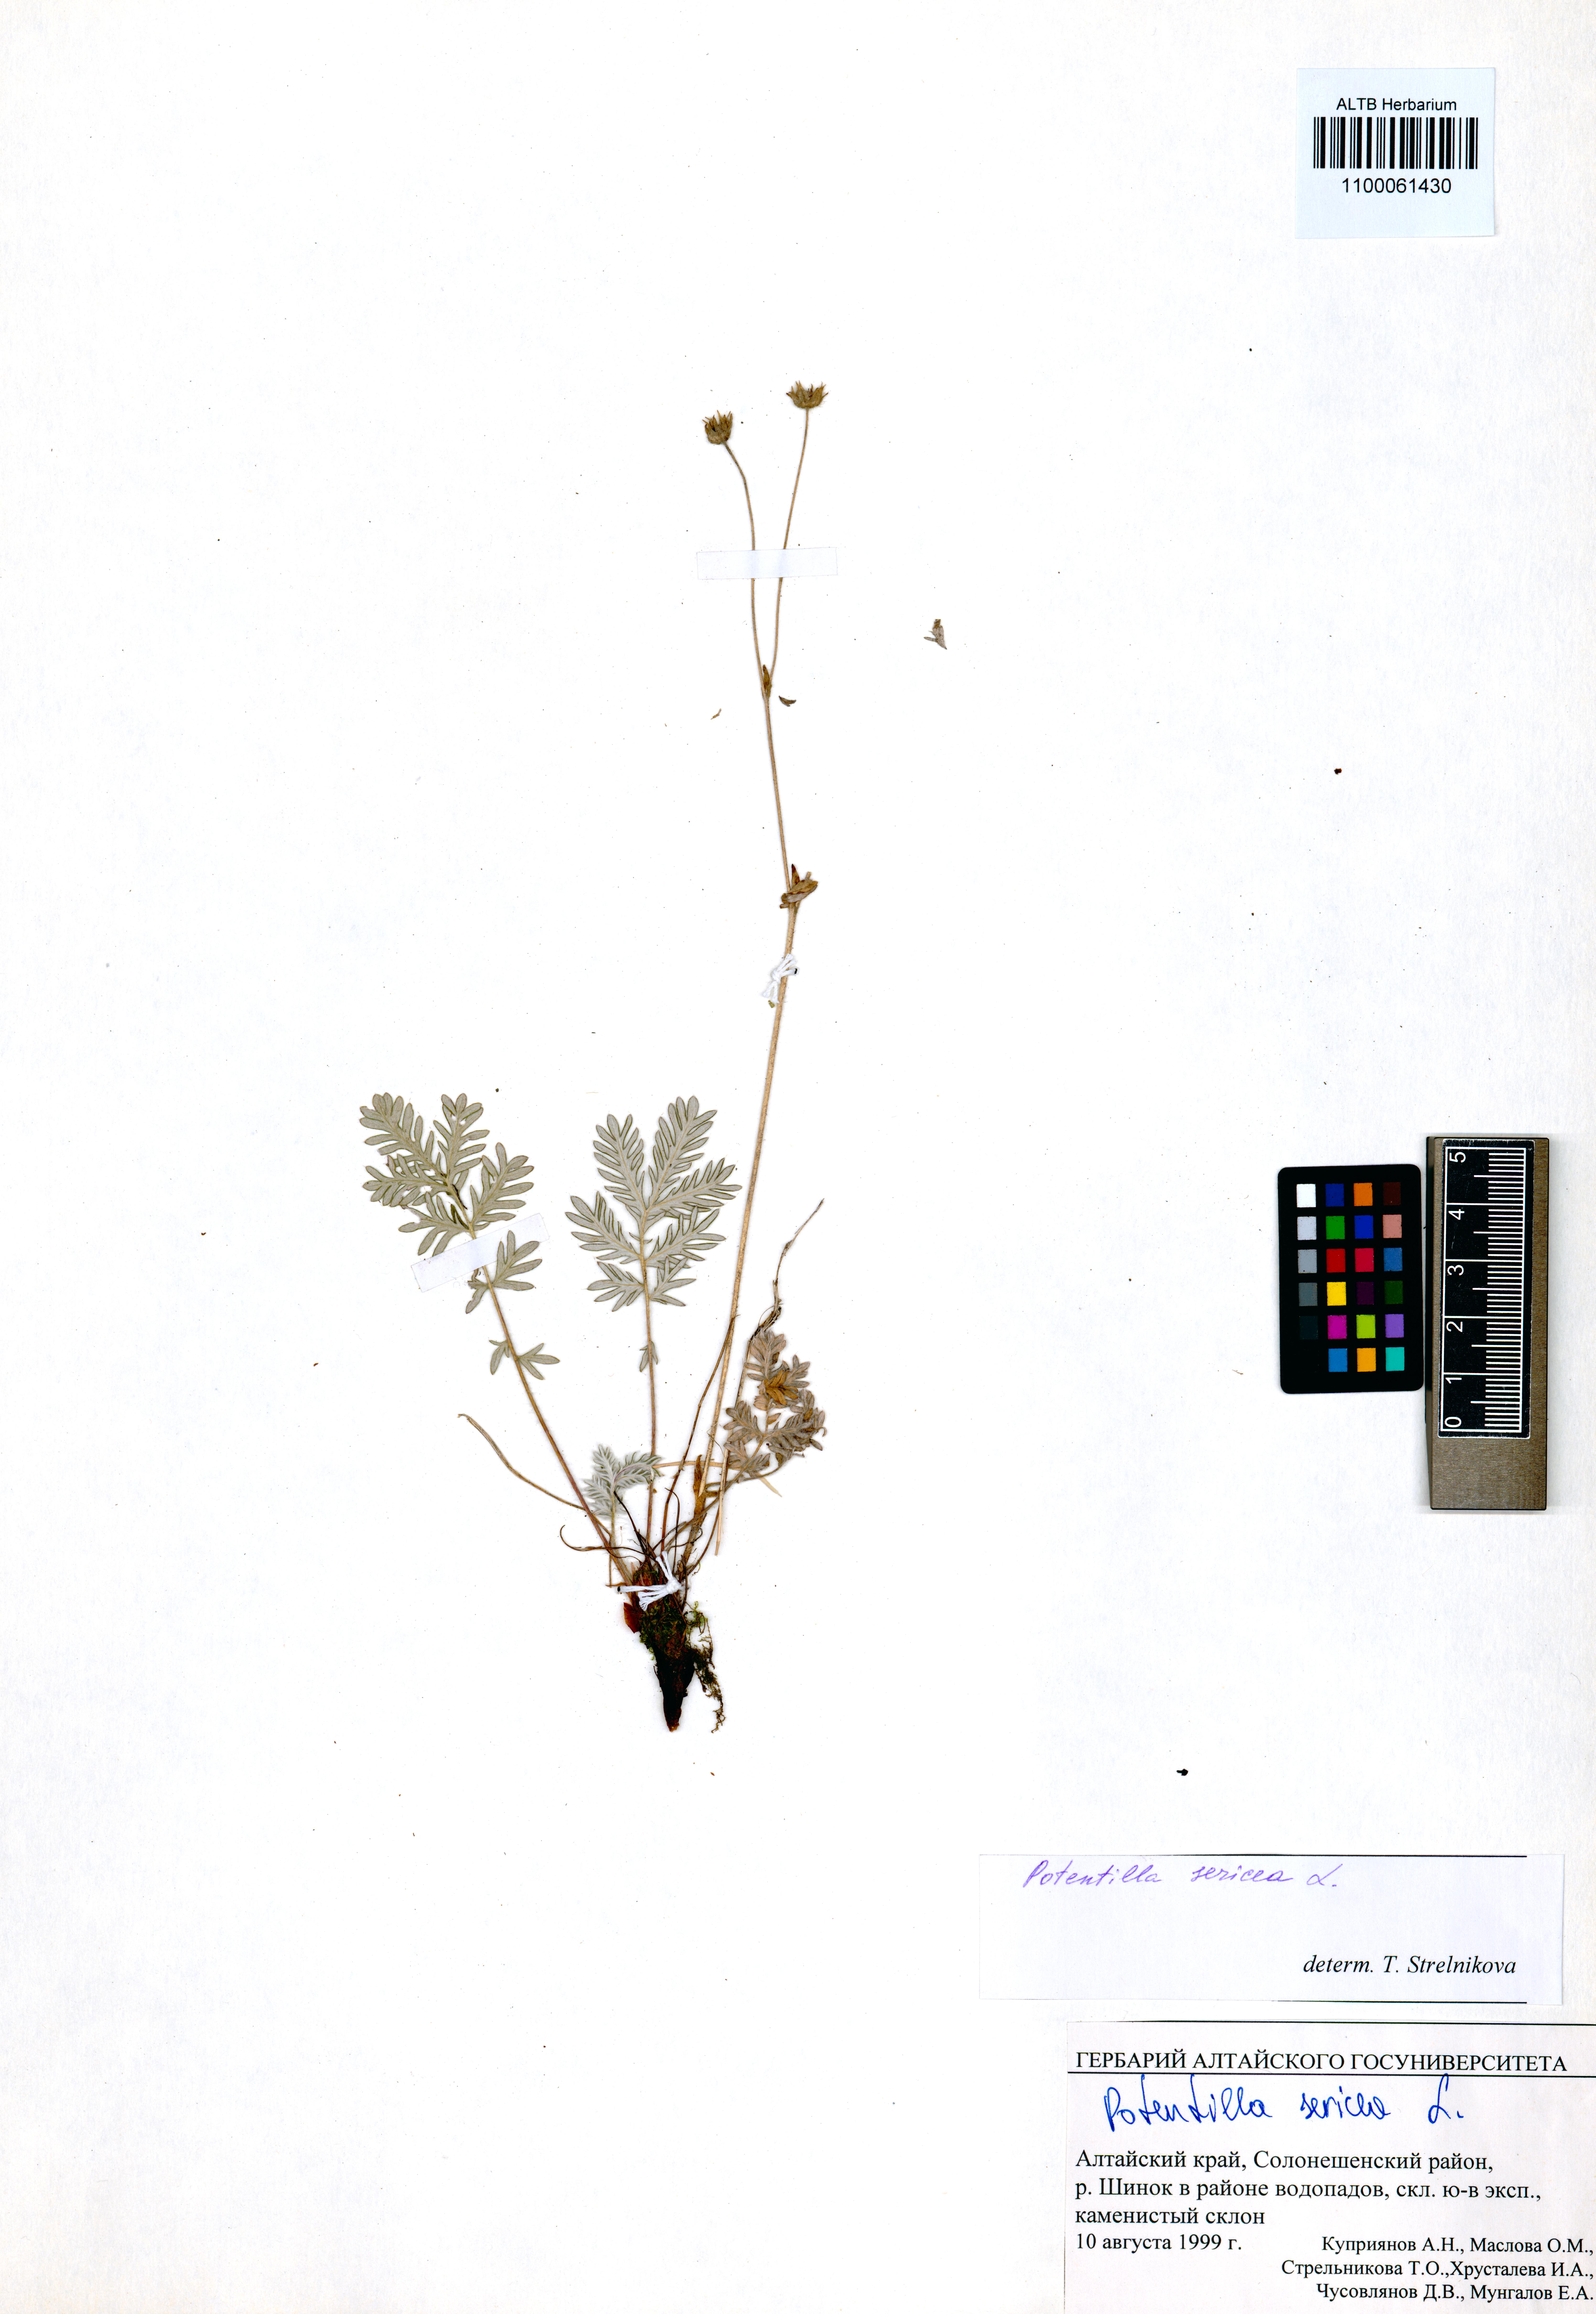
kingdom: Plantae
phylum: Tracheophyta
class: Magnoliopsida
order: Rosales
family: Rosaceae
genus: Potentilla
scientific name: Potentilla sericea
